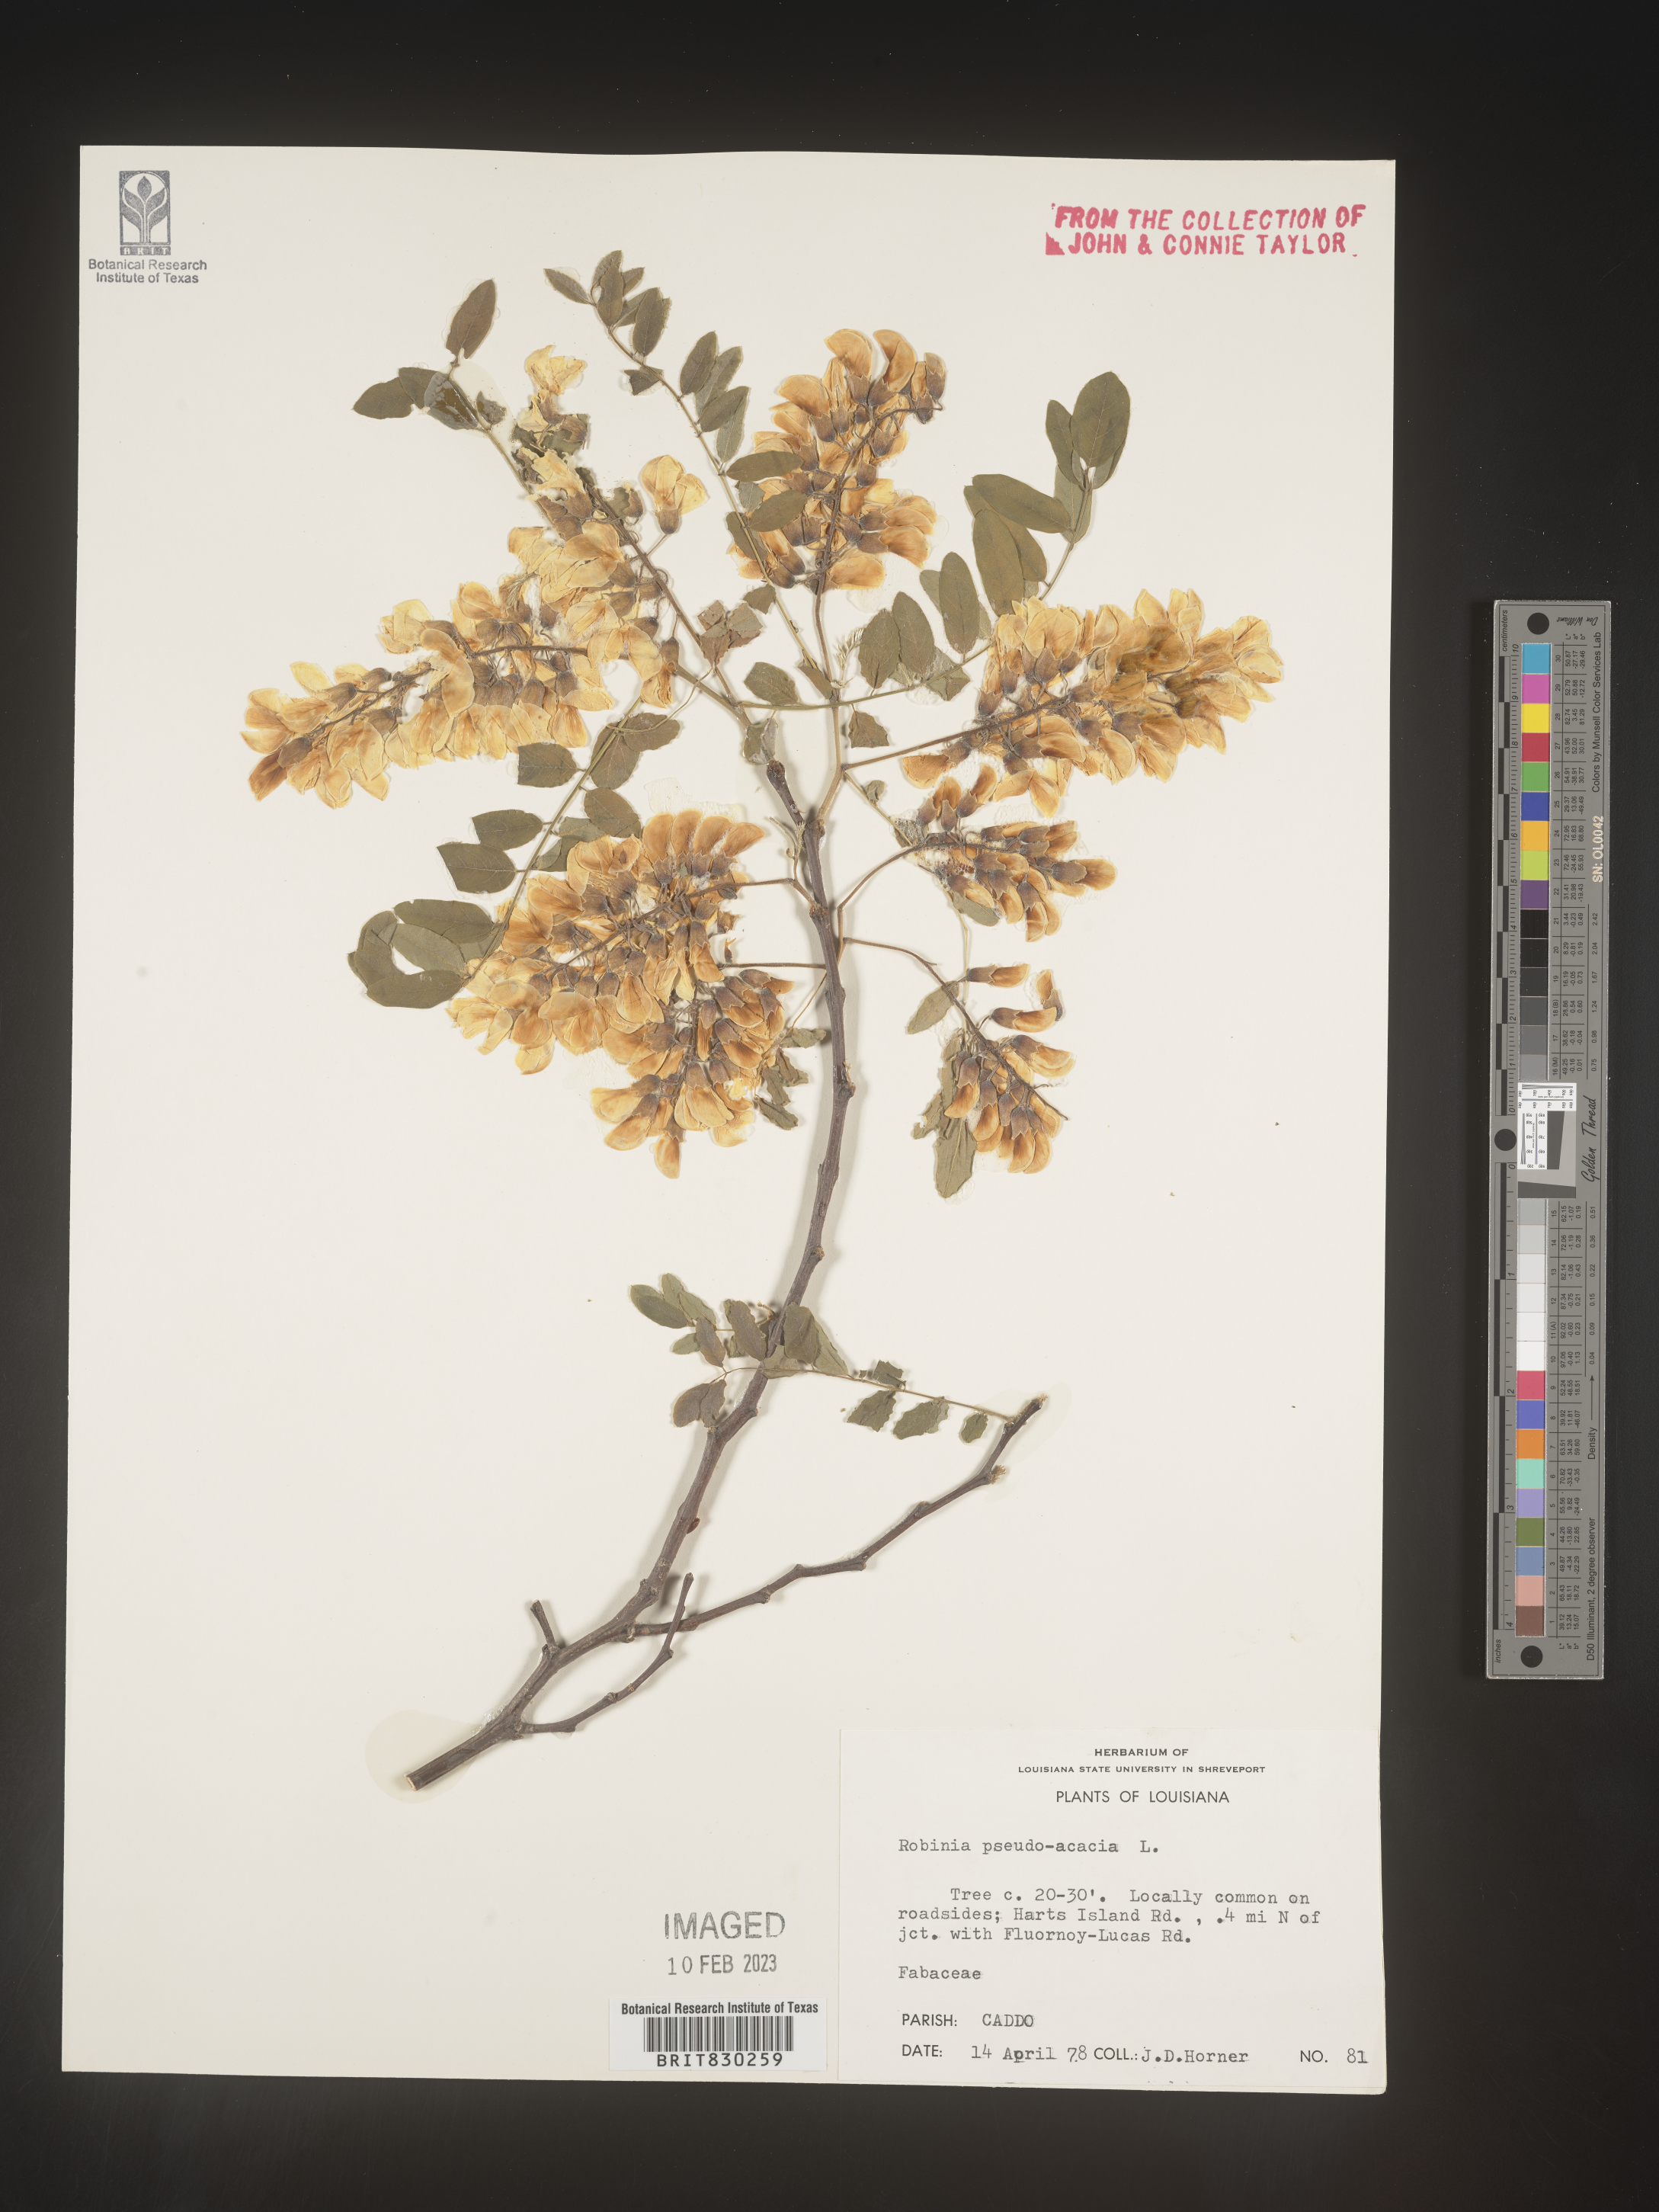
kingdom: Plantae
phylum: Tracheophyta
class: Magnoliopsida
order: Fabales
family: Fabaceae
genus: Robinia
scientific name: Robinia pseudoacacia
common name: Black locust
